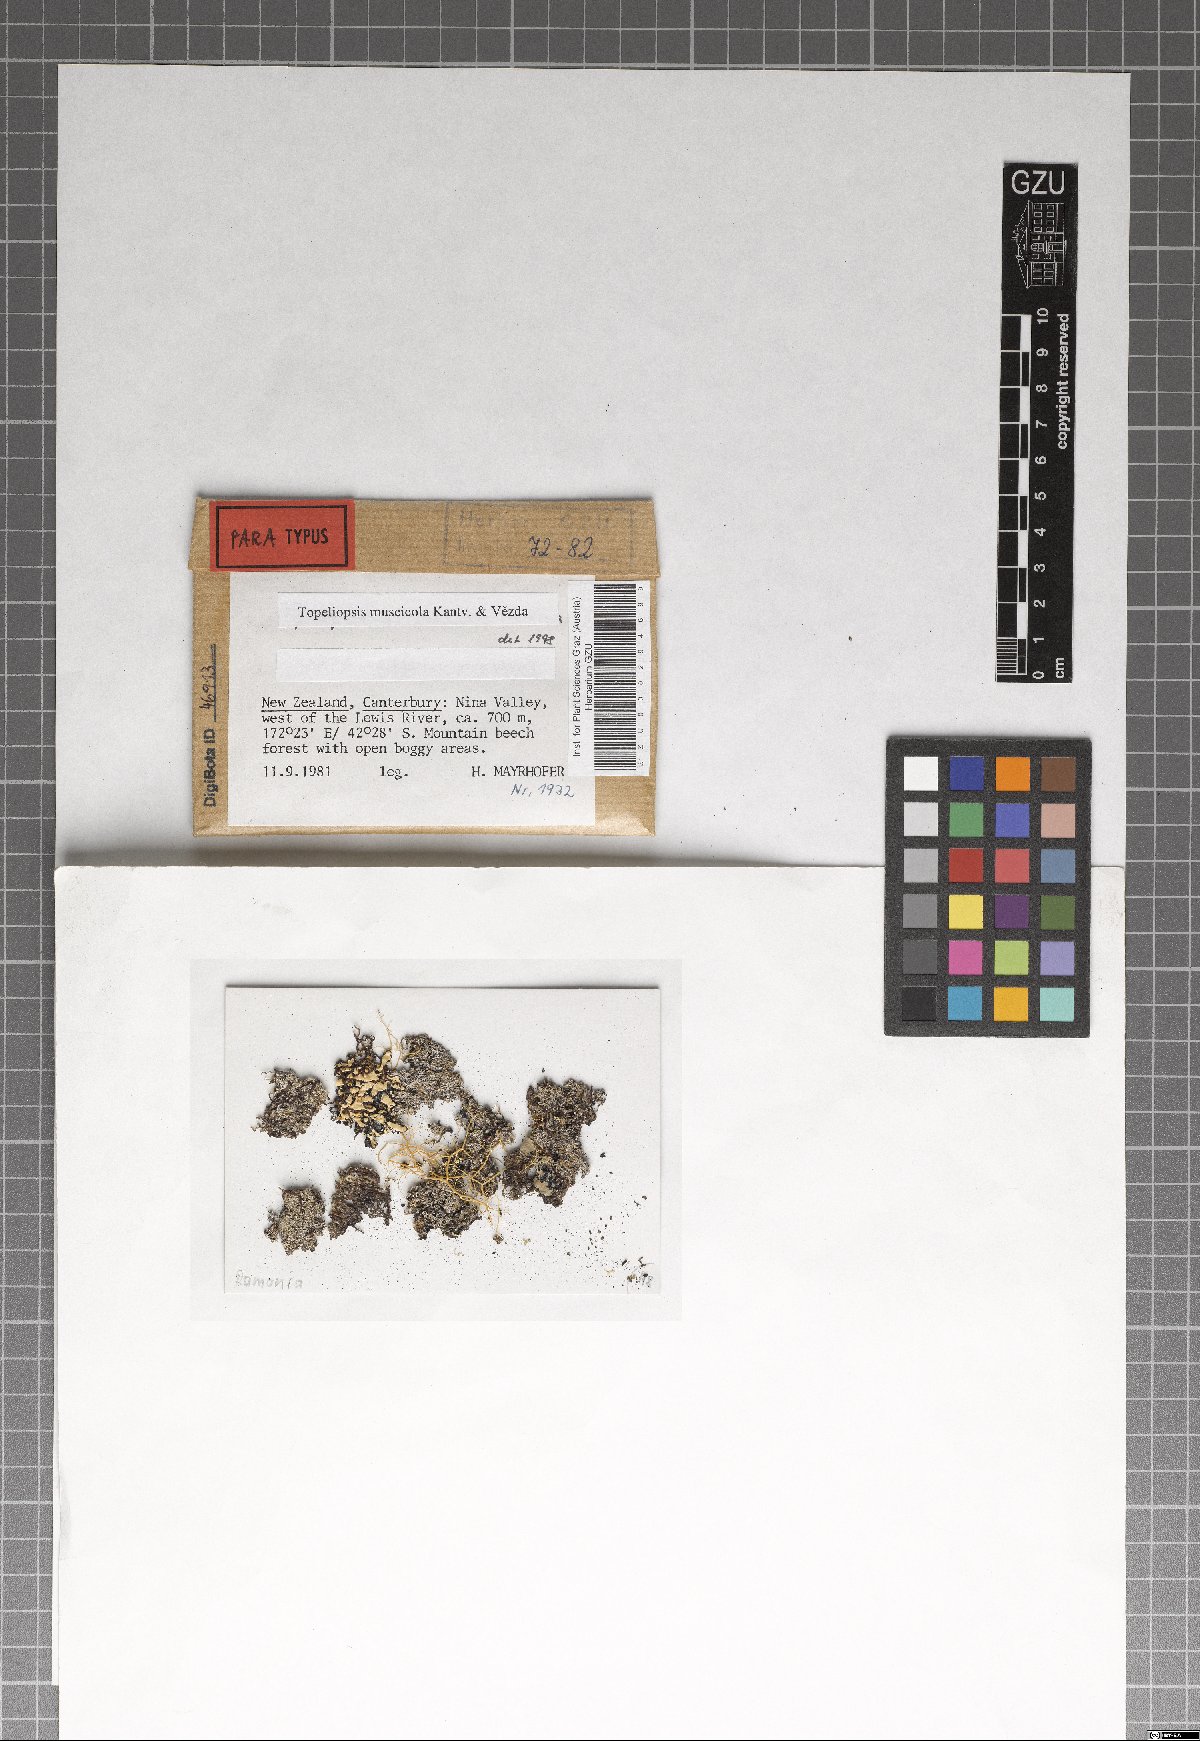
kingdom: Fungi
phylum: Ascomycota
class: Lecanoromycetes
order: Ostropales
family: Graphidaceae
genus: Topeliopsis
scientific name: Topeliopsis muscigena
